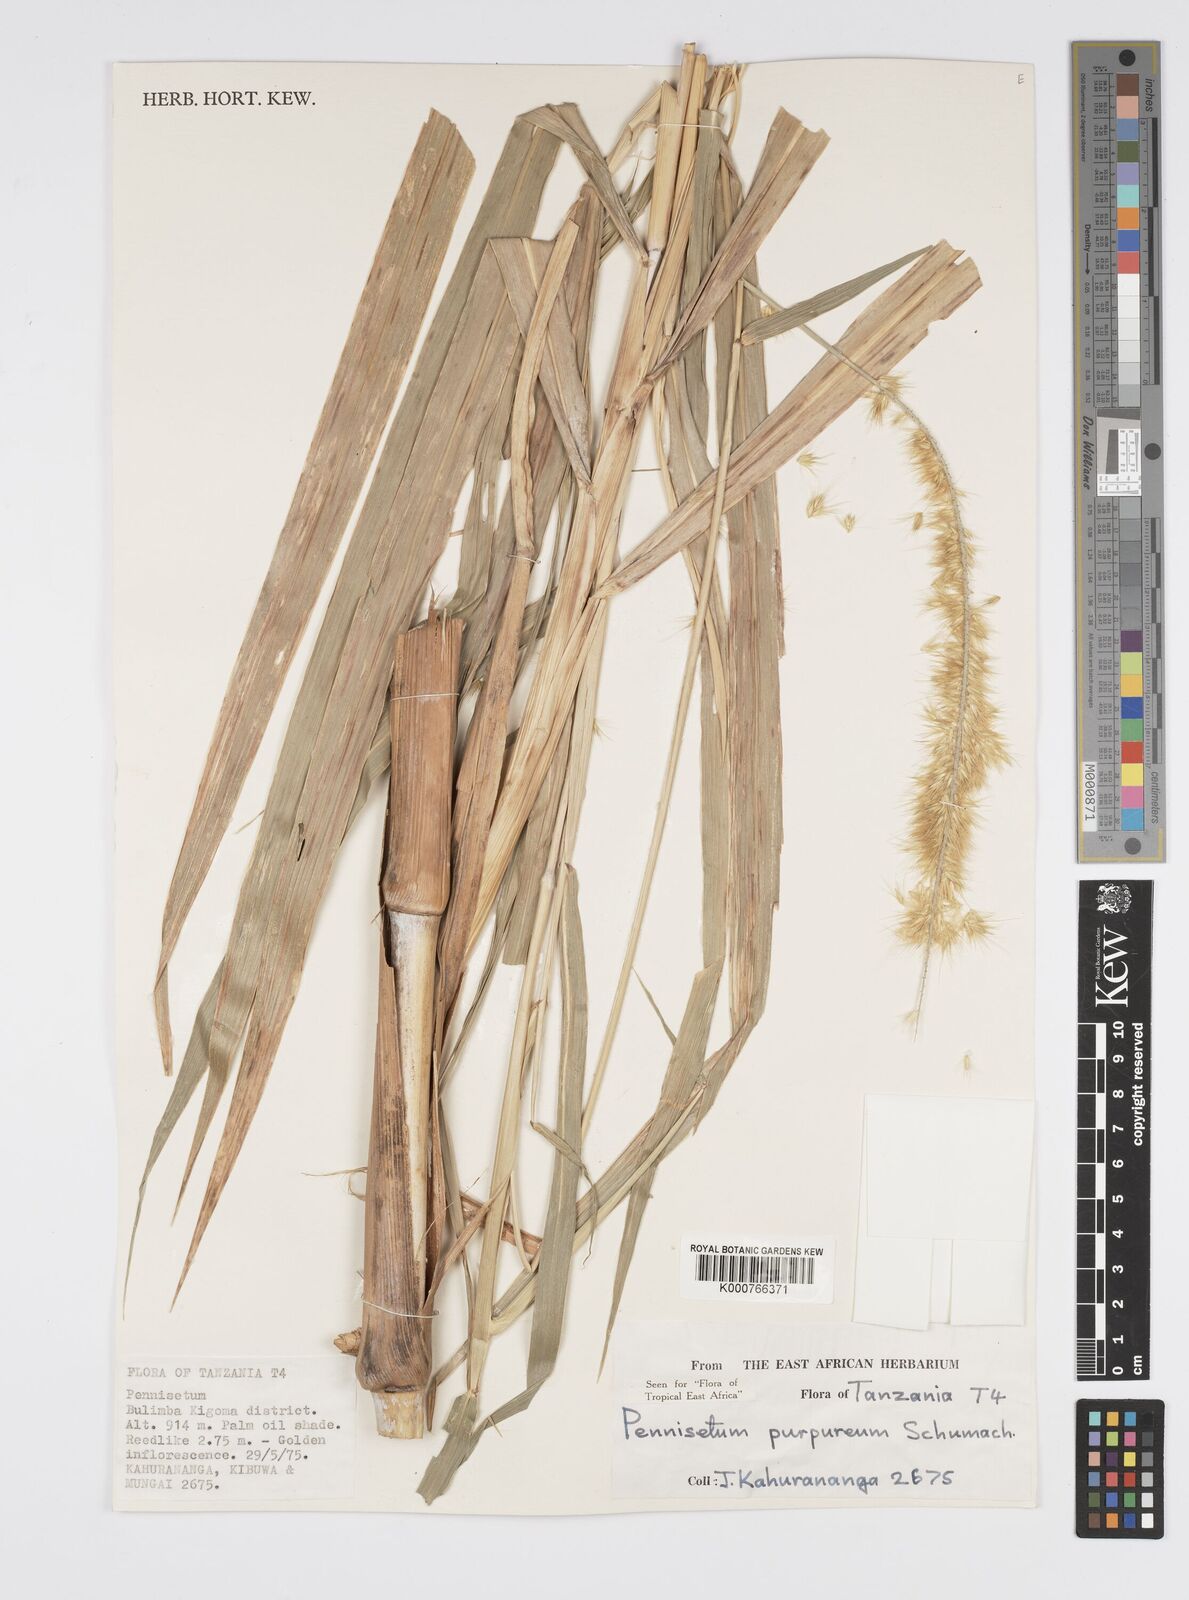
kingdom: Plantae
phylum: Tracheophyta
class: Liliopsida
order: Poales
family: Poaceae
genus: Cenchrus
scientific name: Cenchrus purpureus
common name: Elephant grass
